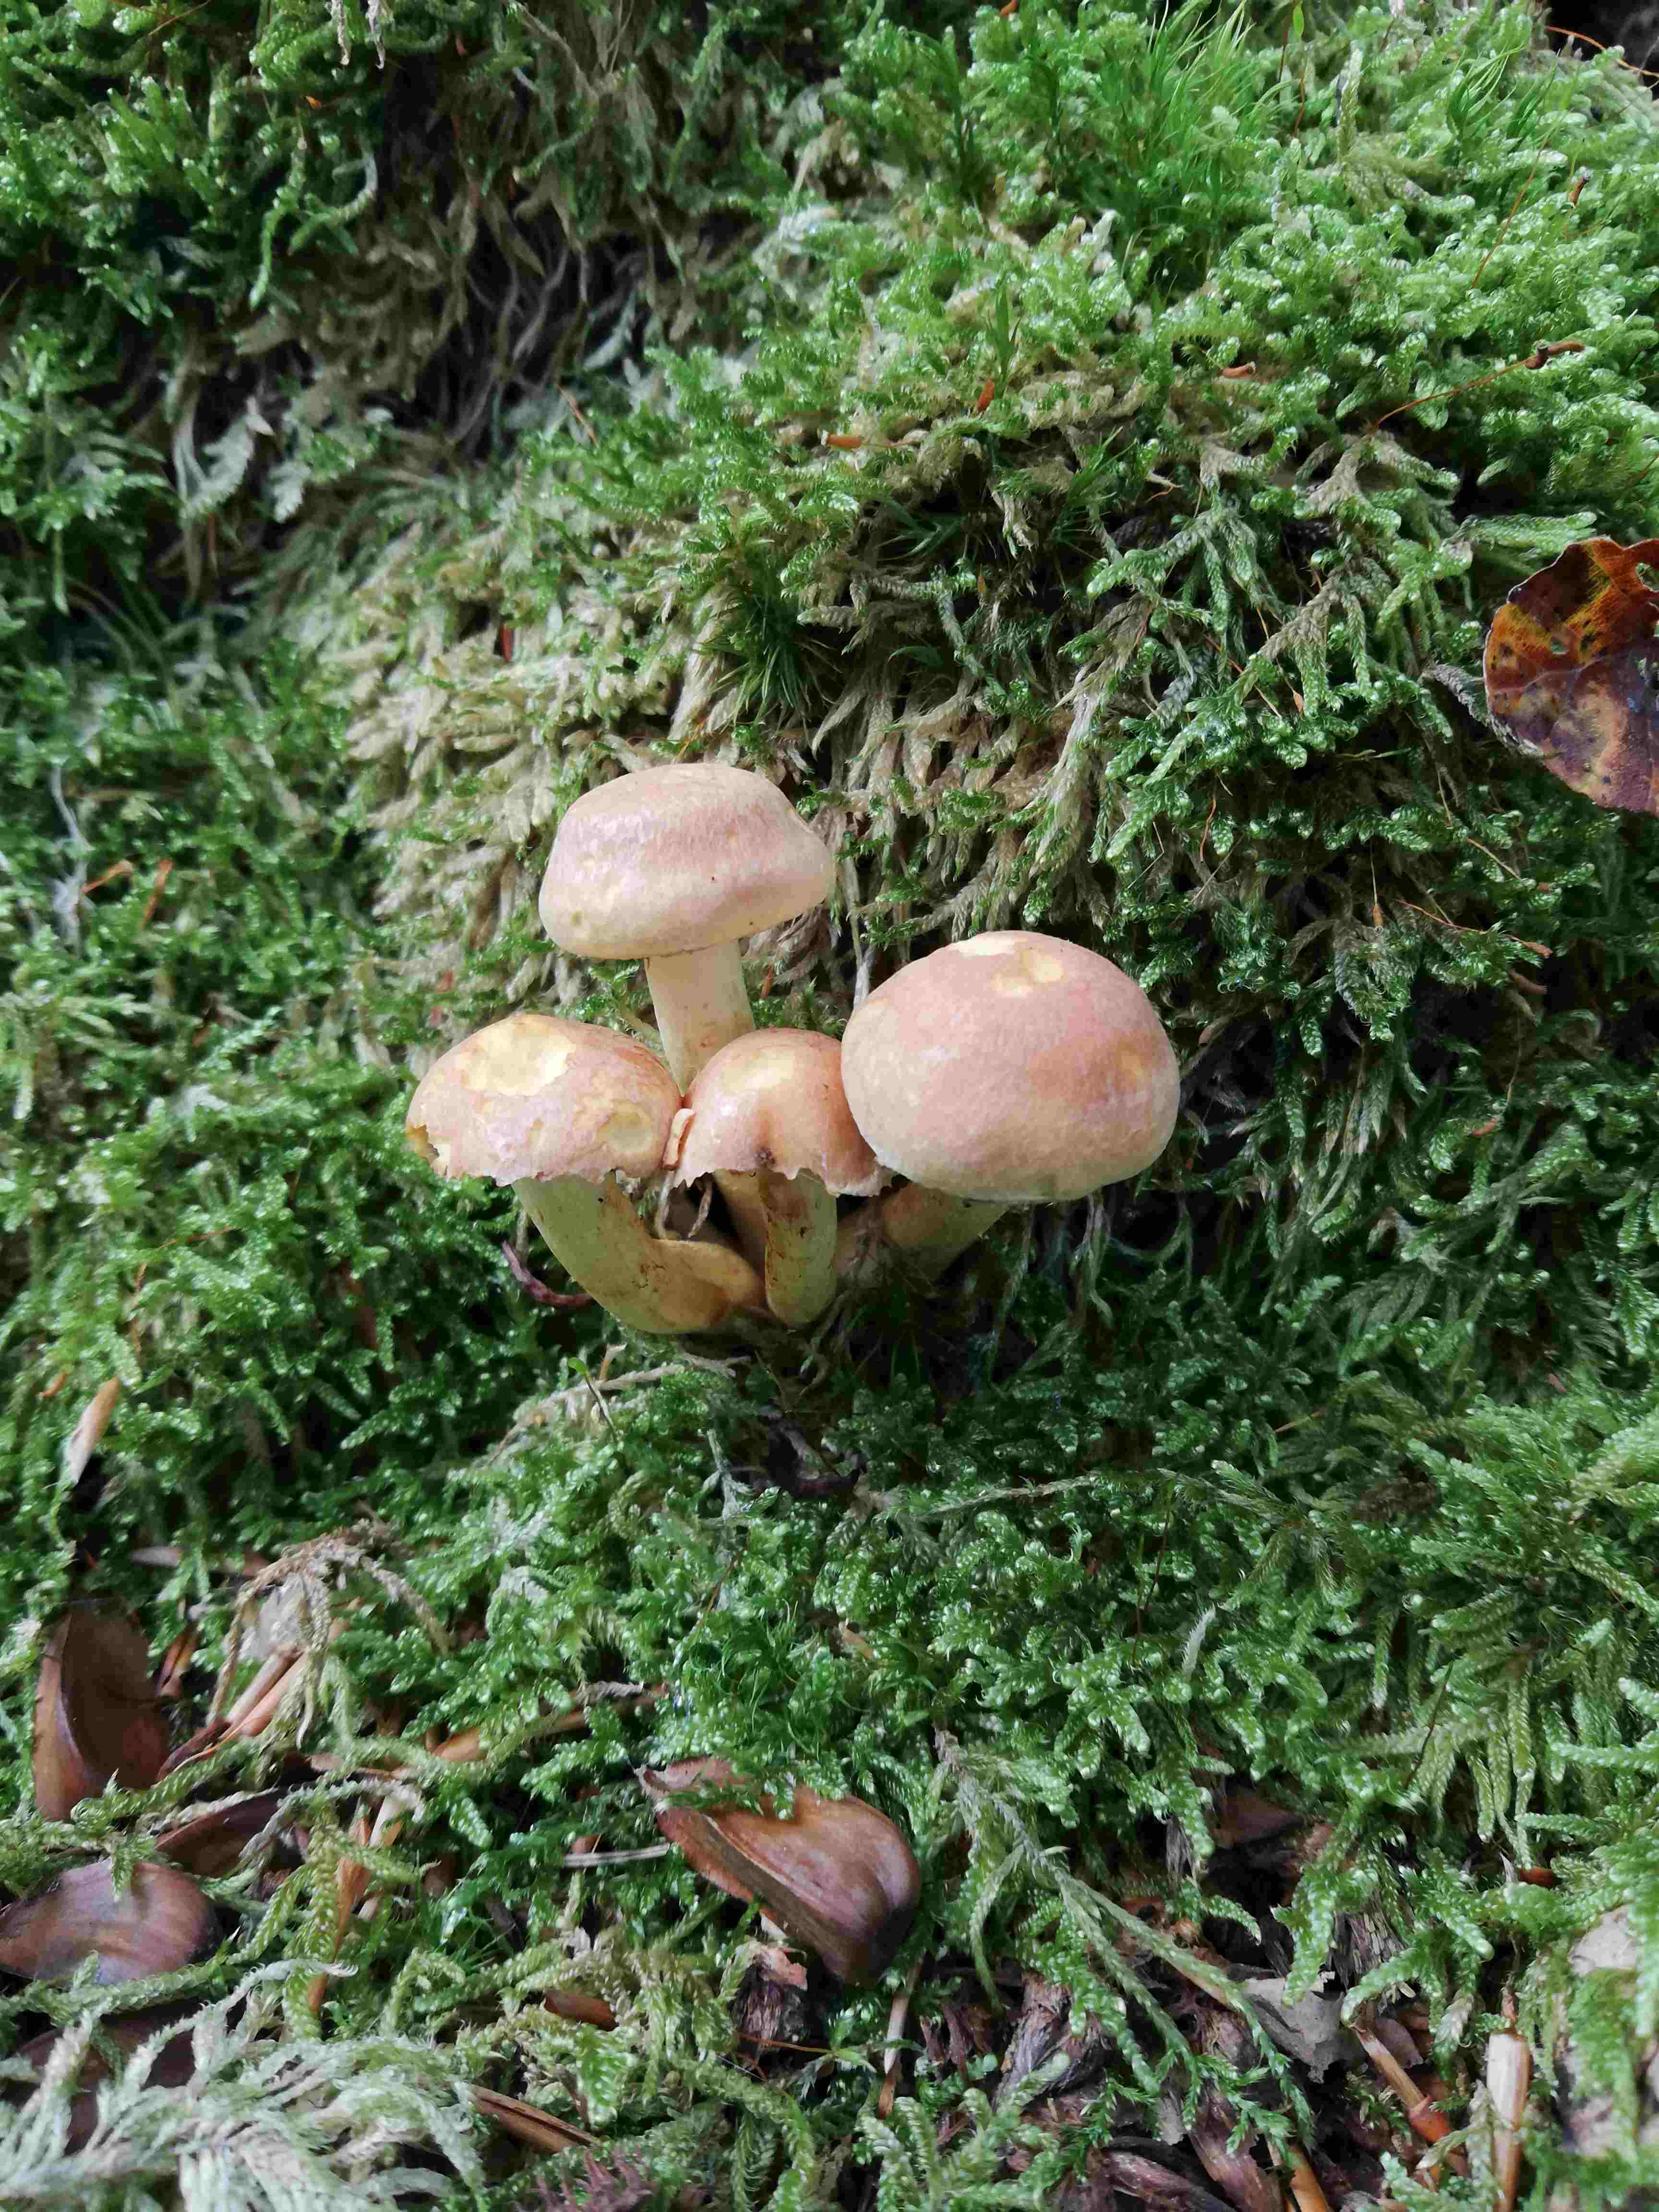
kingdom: Fungi
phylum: Basidiomycota
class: Agaricomycetes
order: Agaricales
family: Strophariaceae
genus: Hypholoma
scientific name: Hypholoma
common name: svovlhat
